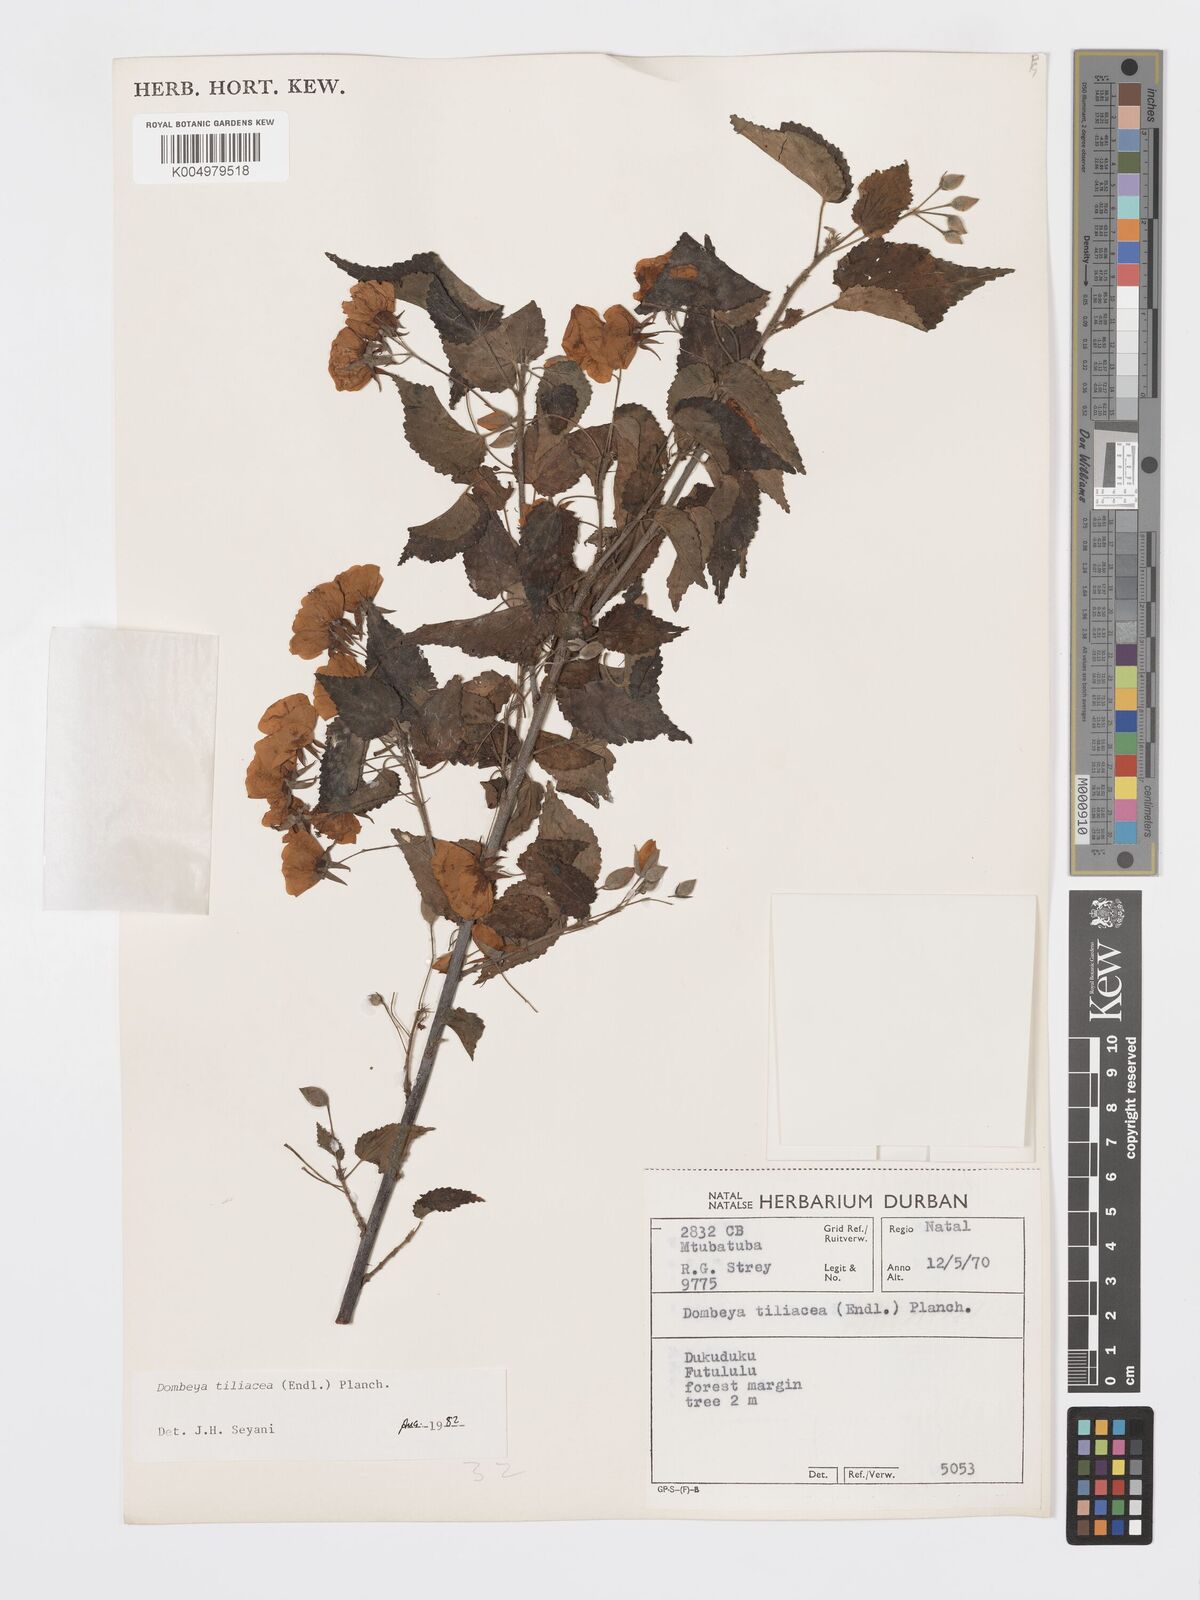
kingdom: Plantae
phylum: Tracheophyta
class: Magnoliopsida
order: Malvales
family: Malvaceae
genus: Dombeya
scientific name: Dombeya tiliacea
